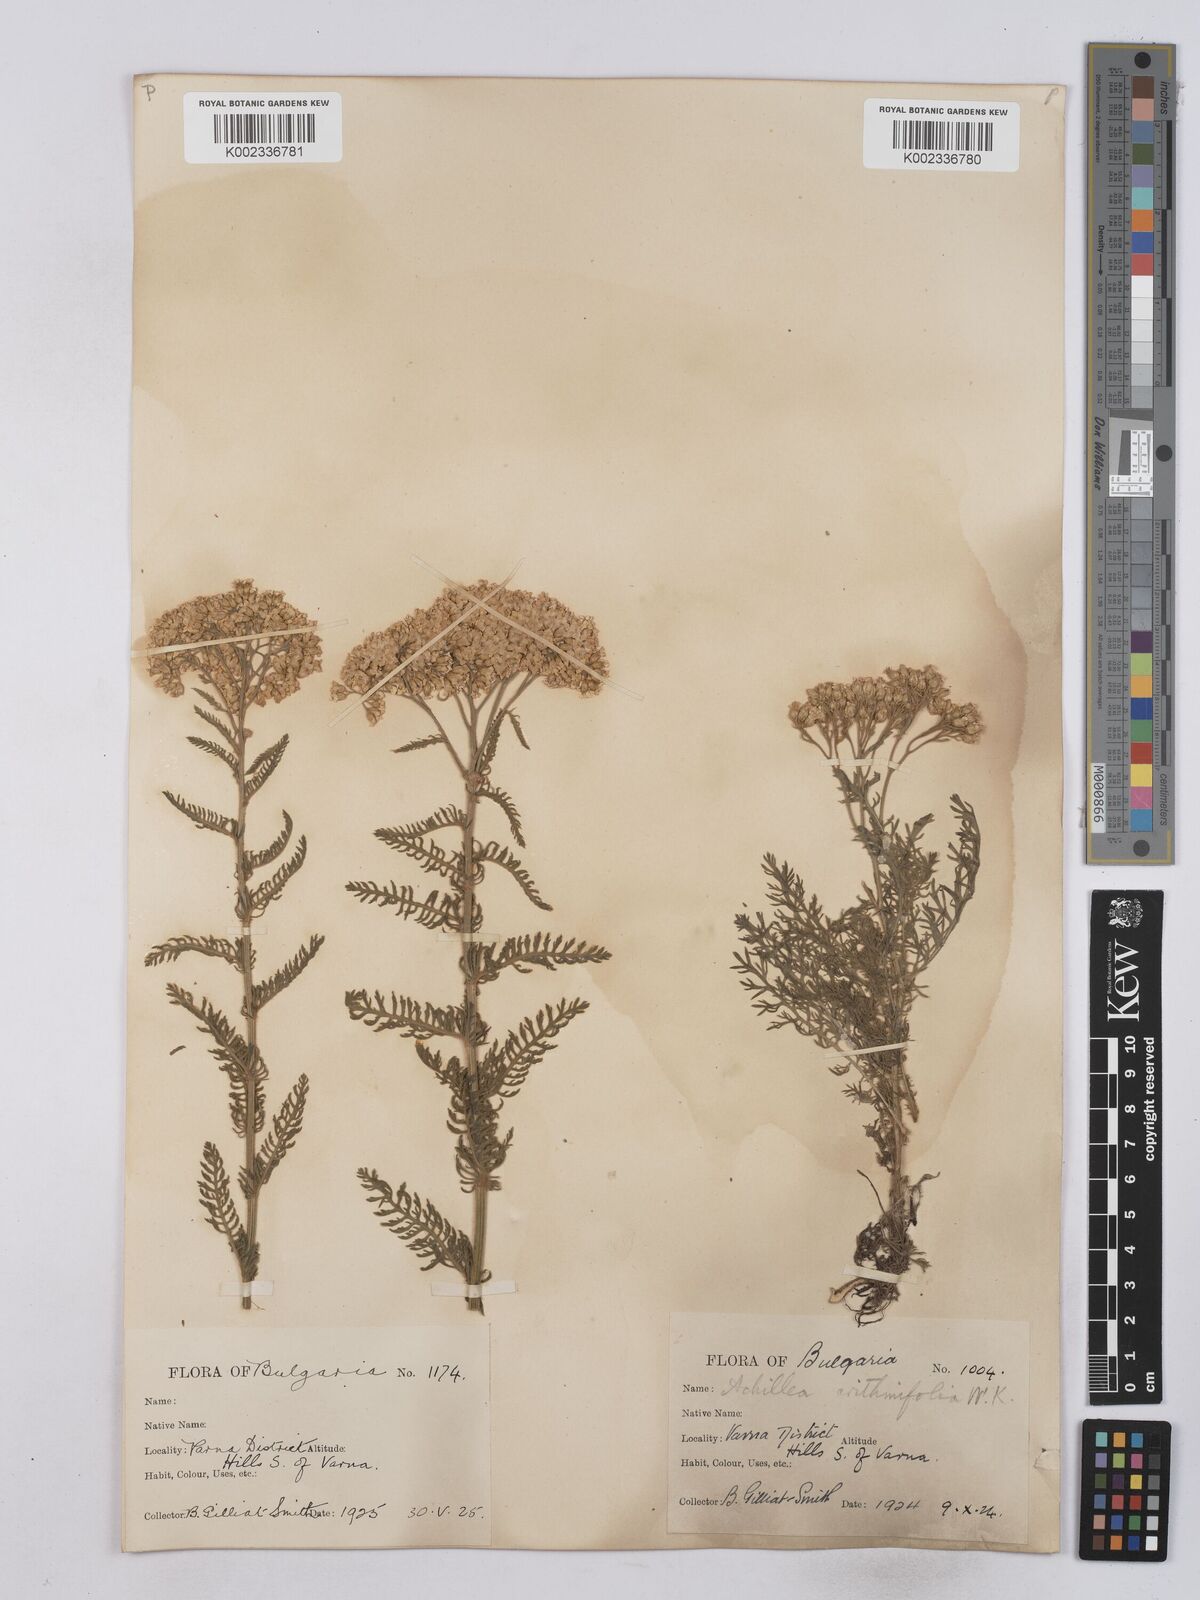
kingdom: Plantae
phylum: Tracheophyta
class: Magnoliopsida
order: Asterales
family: Asteraceae
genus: Achillea
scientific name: Achillea crithmifolia
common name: Yarrow
